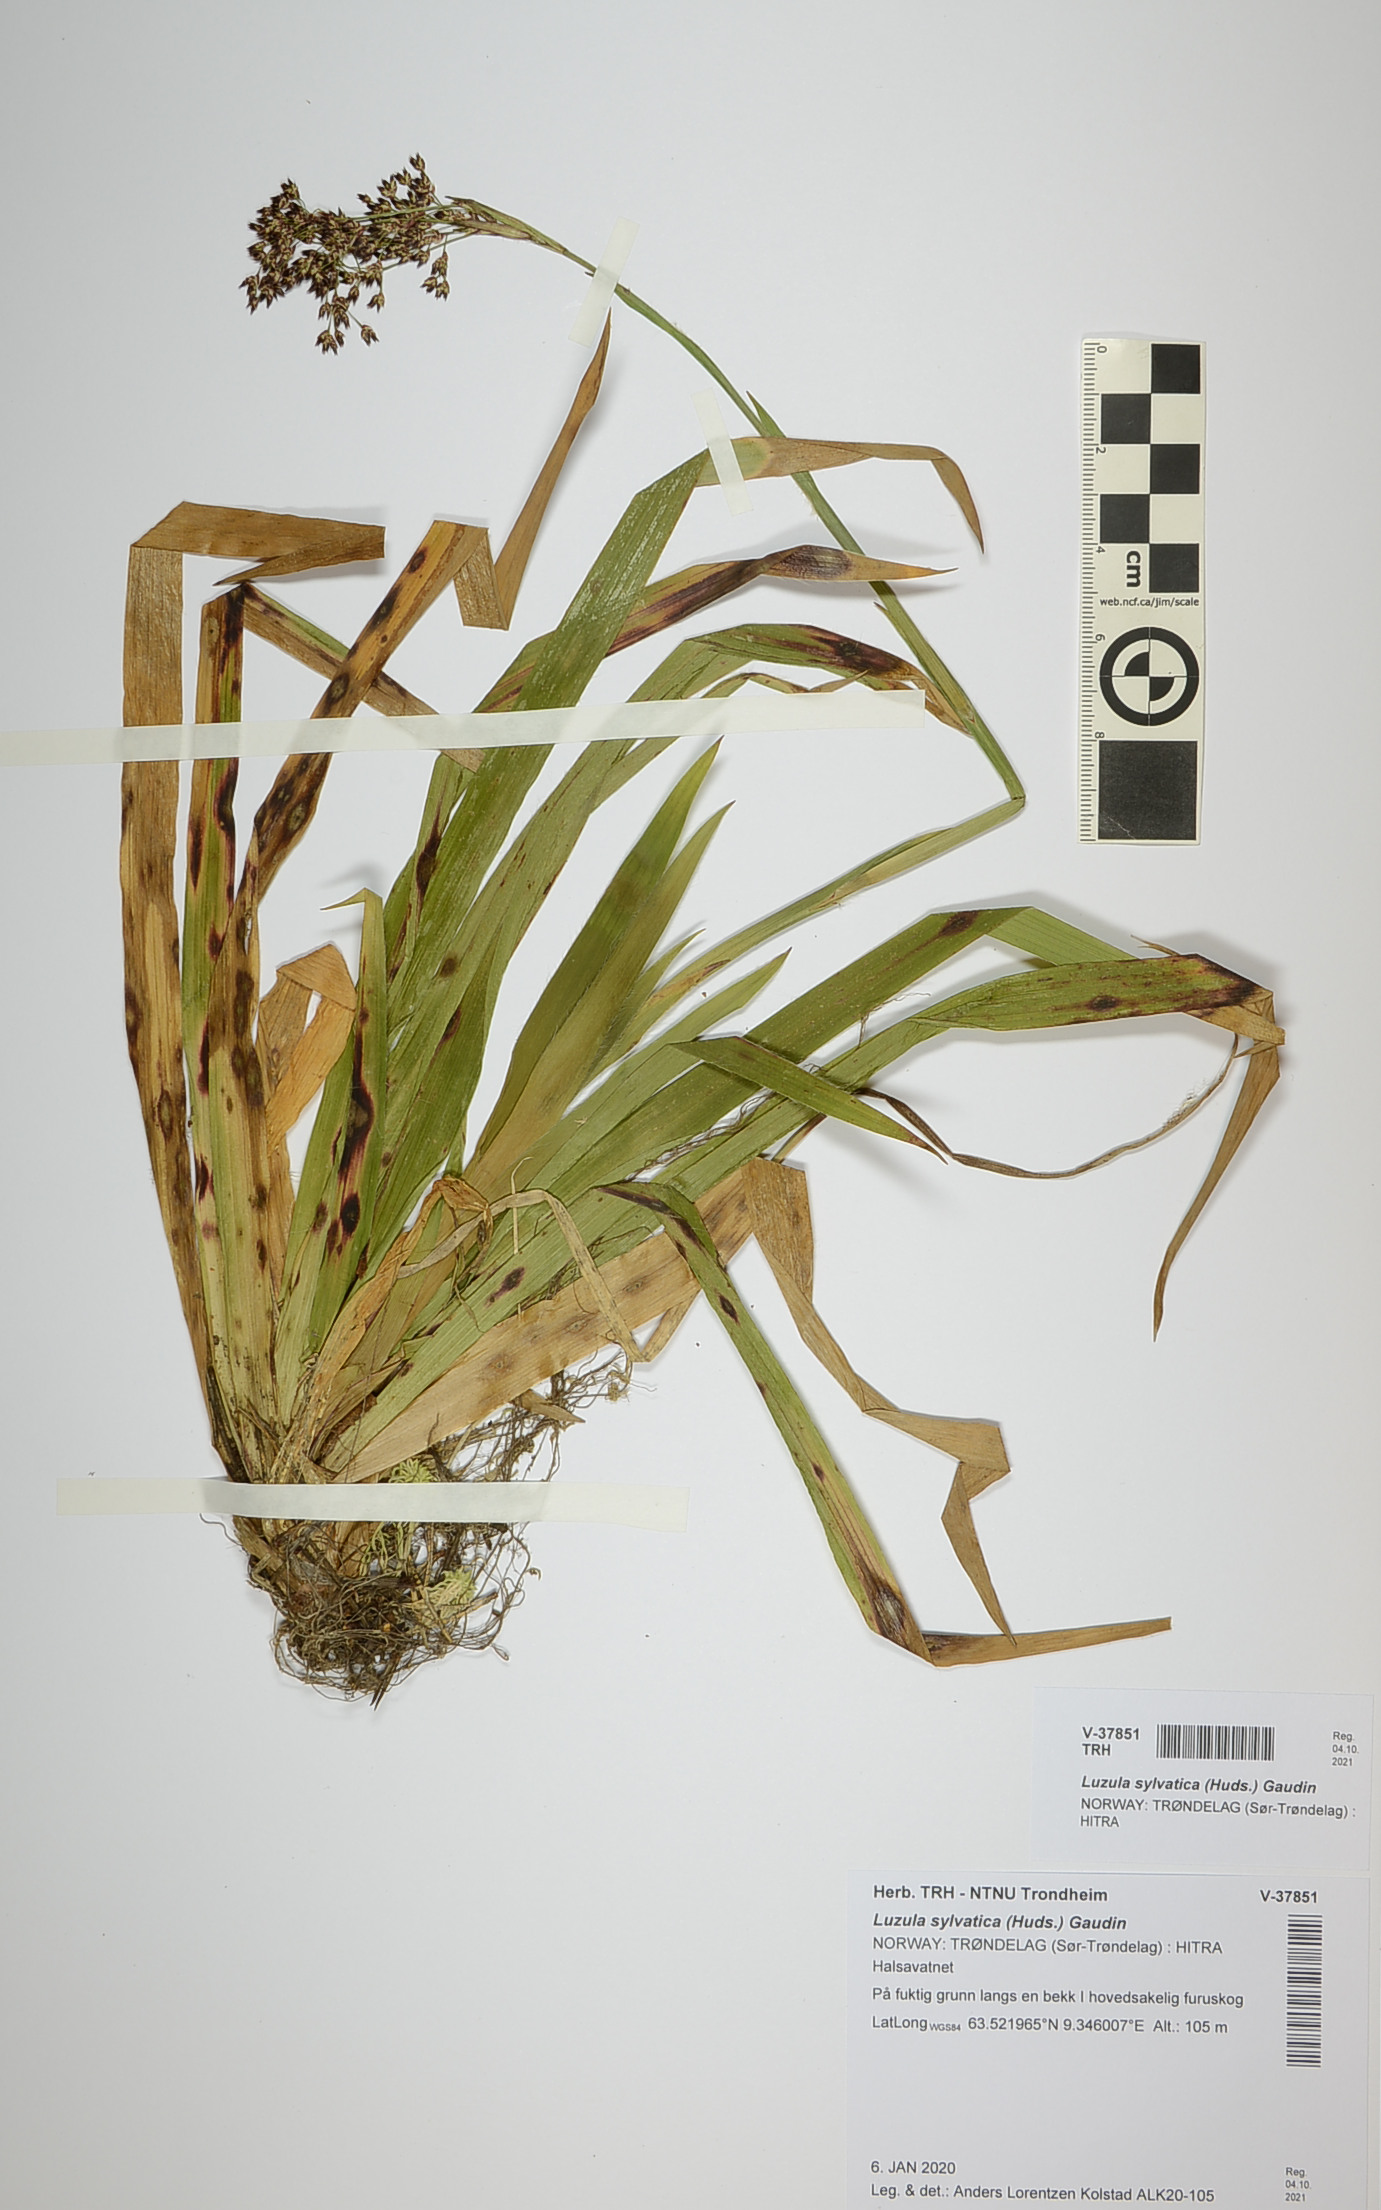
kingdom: Plantae
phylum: Tracheophyta
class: Liliopsida
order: Poales
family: Juncaceae
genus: Luzula
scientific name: Luzula sylvatica
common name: Great wood-rush
